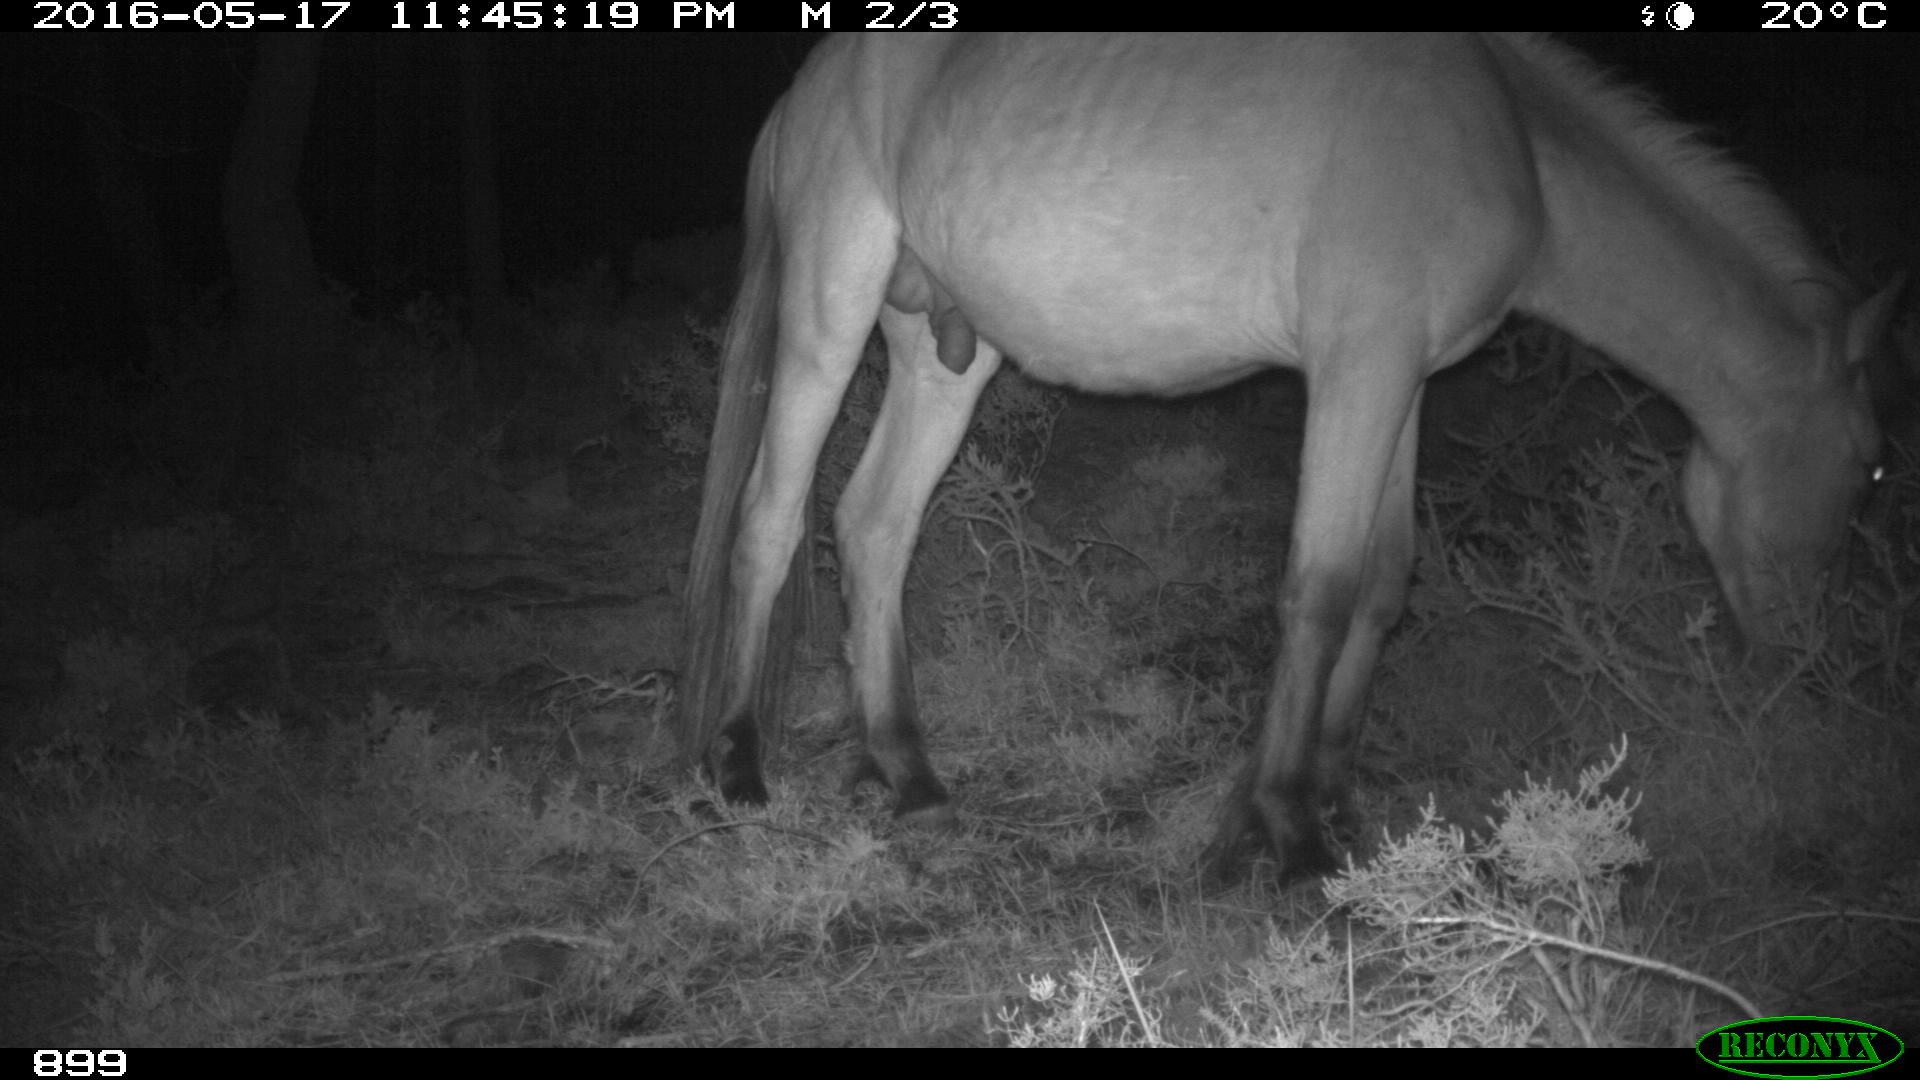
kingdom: Animalia
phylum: Chordata
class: Mammalia
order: Perissodactyla
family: Equidae
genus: Equus
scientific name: Equus caballus
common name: Horse
